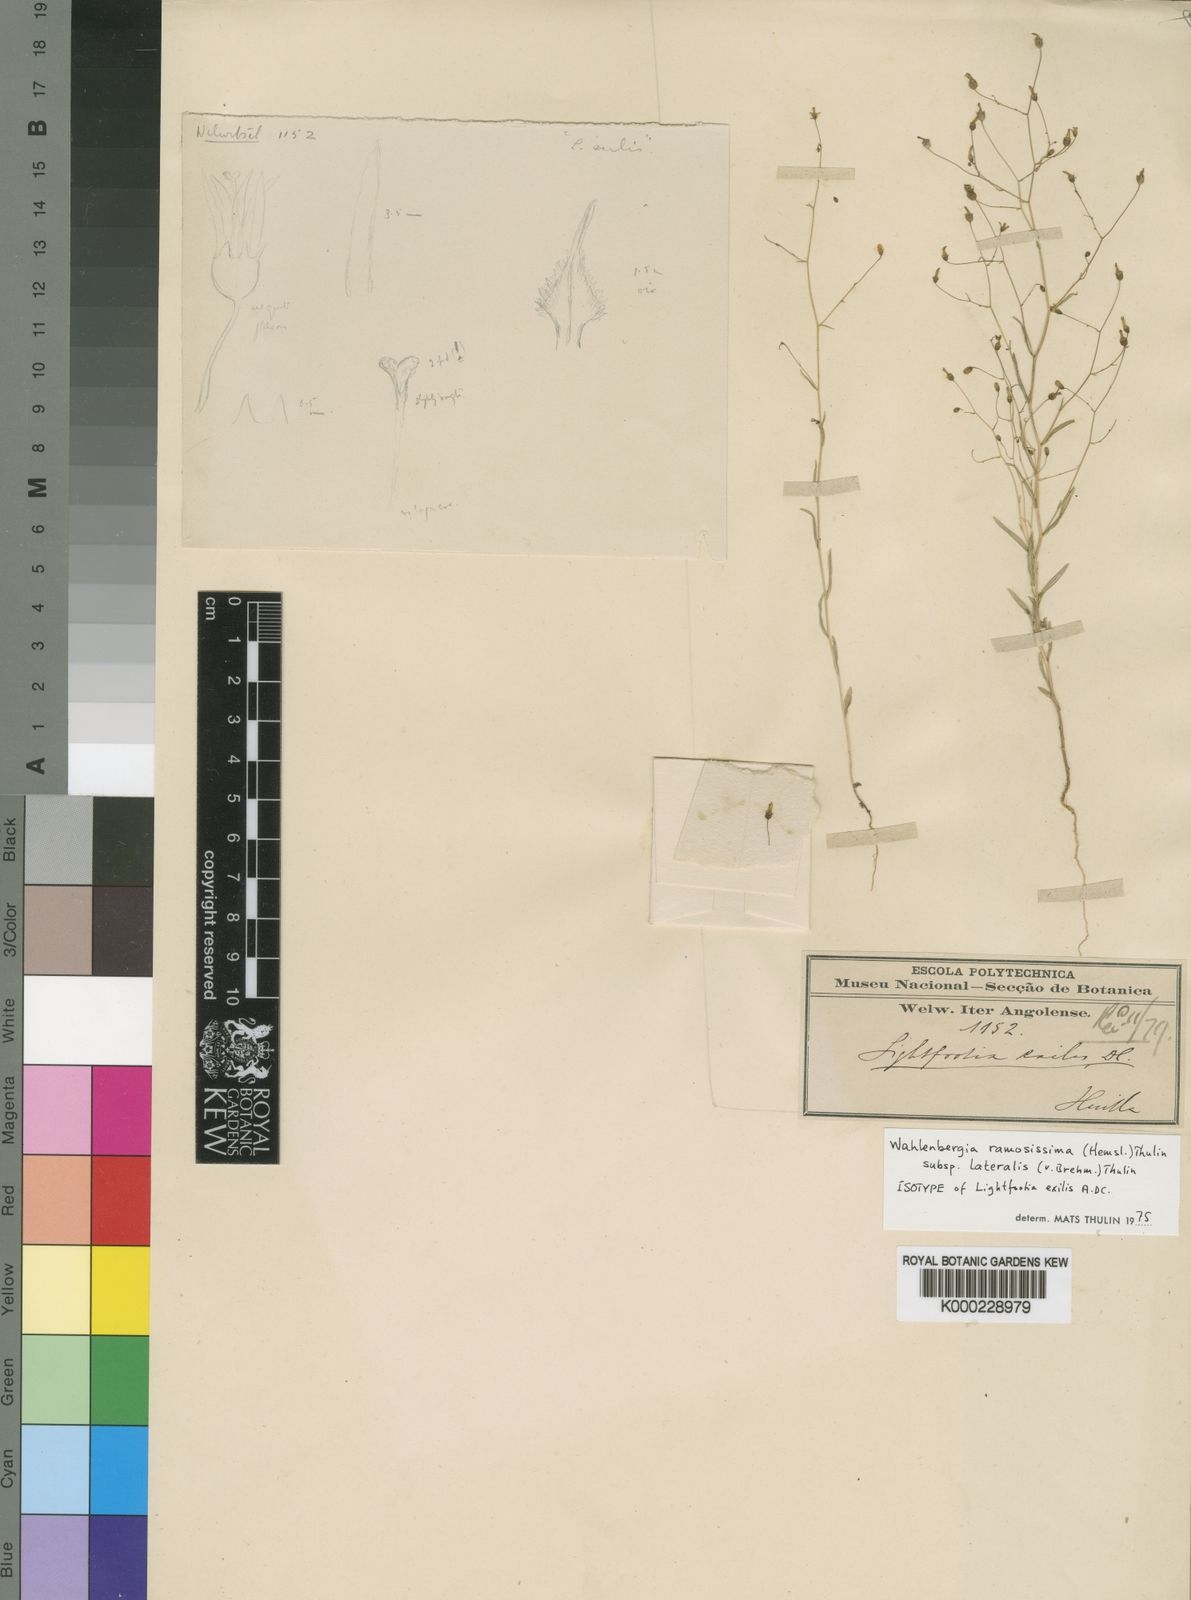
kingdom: Plantae
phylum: Tracheophyta
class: Magnoliopsida
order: Asterales
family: Campanulaceae
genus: Wahlenbergia
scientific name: Wahlenbergia ramosissima
